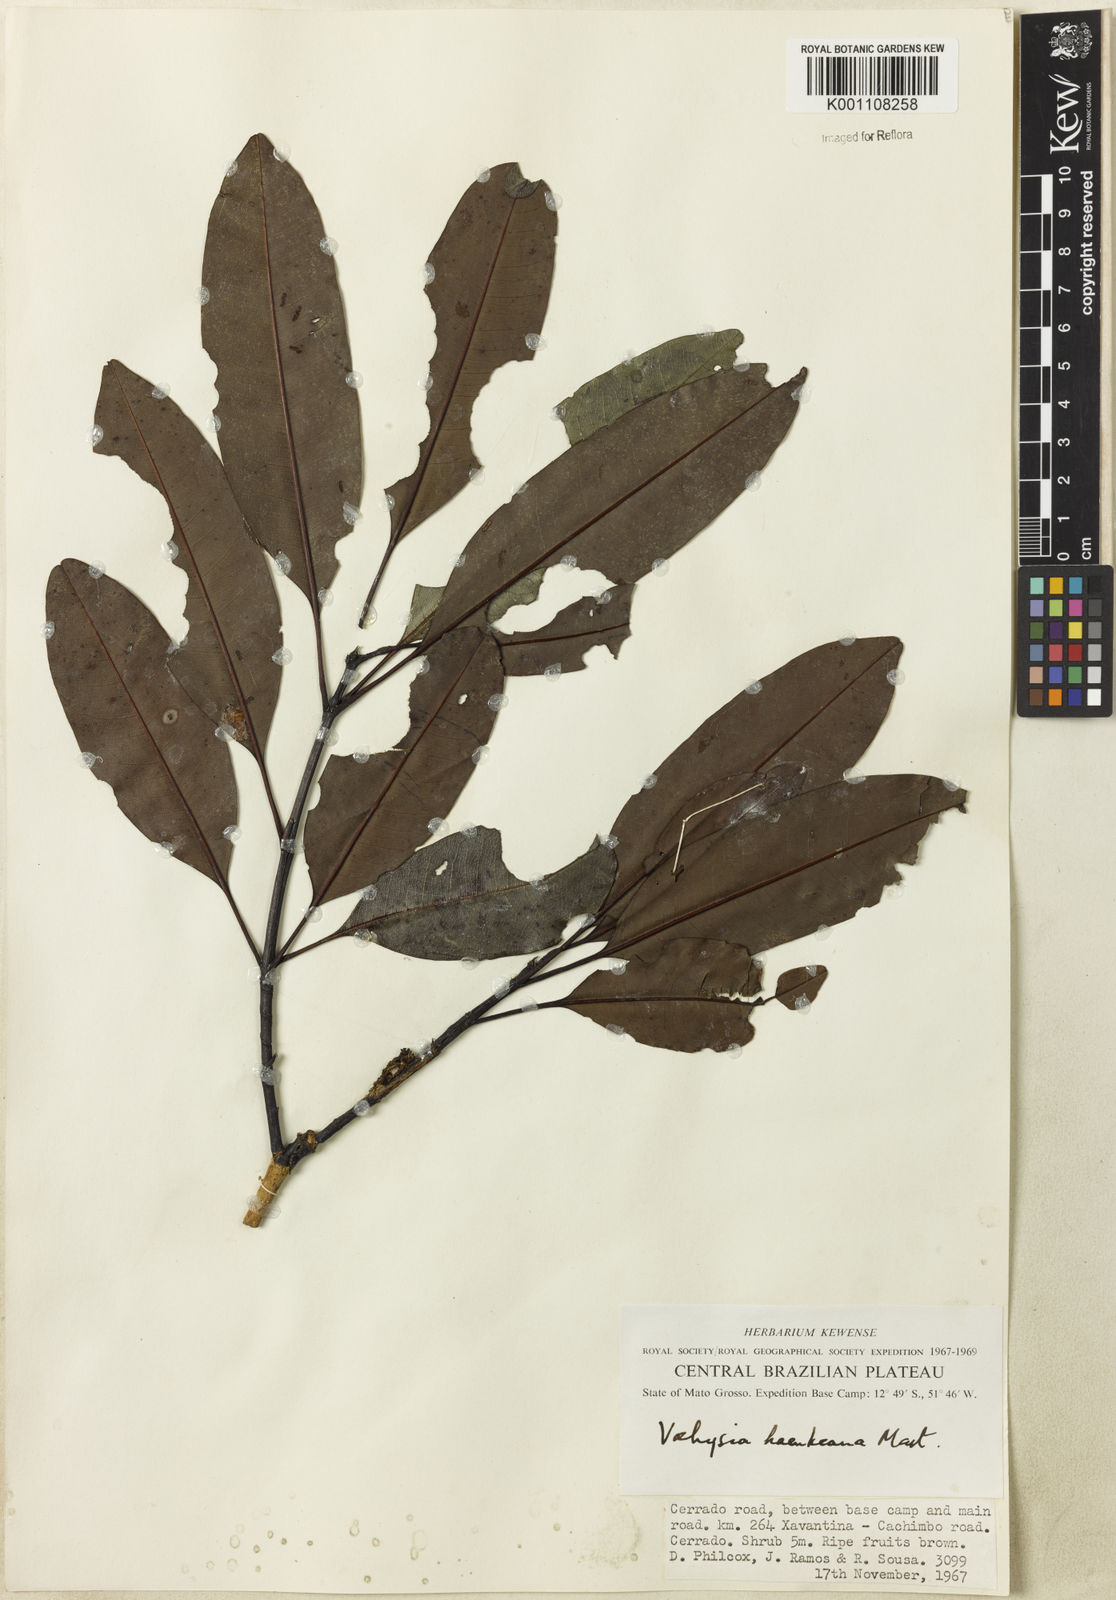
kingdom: Plantae
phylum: Tracheophyta
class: Magnoliopsida
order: Myrtales
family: Vochysiaceae
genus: Vochysia
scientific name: Vochysia haenkeana
